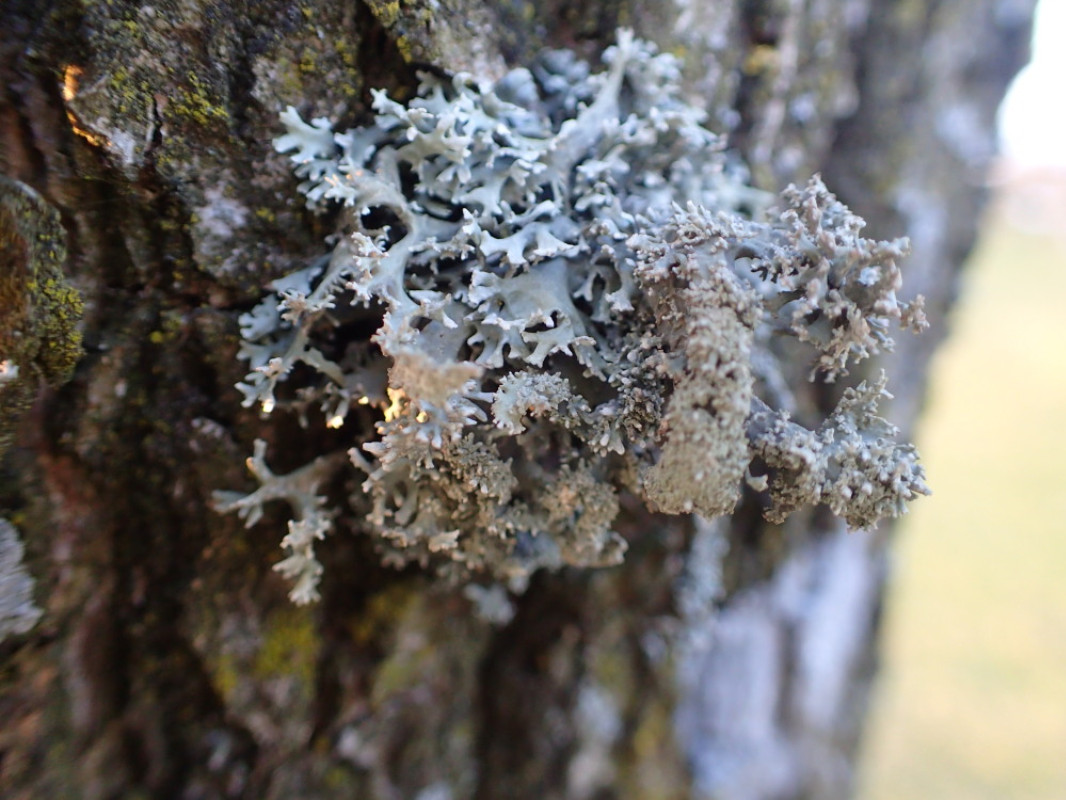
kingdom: Fungi
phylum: Ascomycota
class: Lecanoromycetes
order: Lecanorales
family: Parmeliaceae
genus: Pseudevernia
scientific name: Pseudevernia furfuracea
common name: grå fyrrelav
